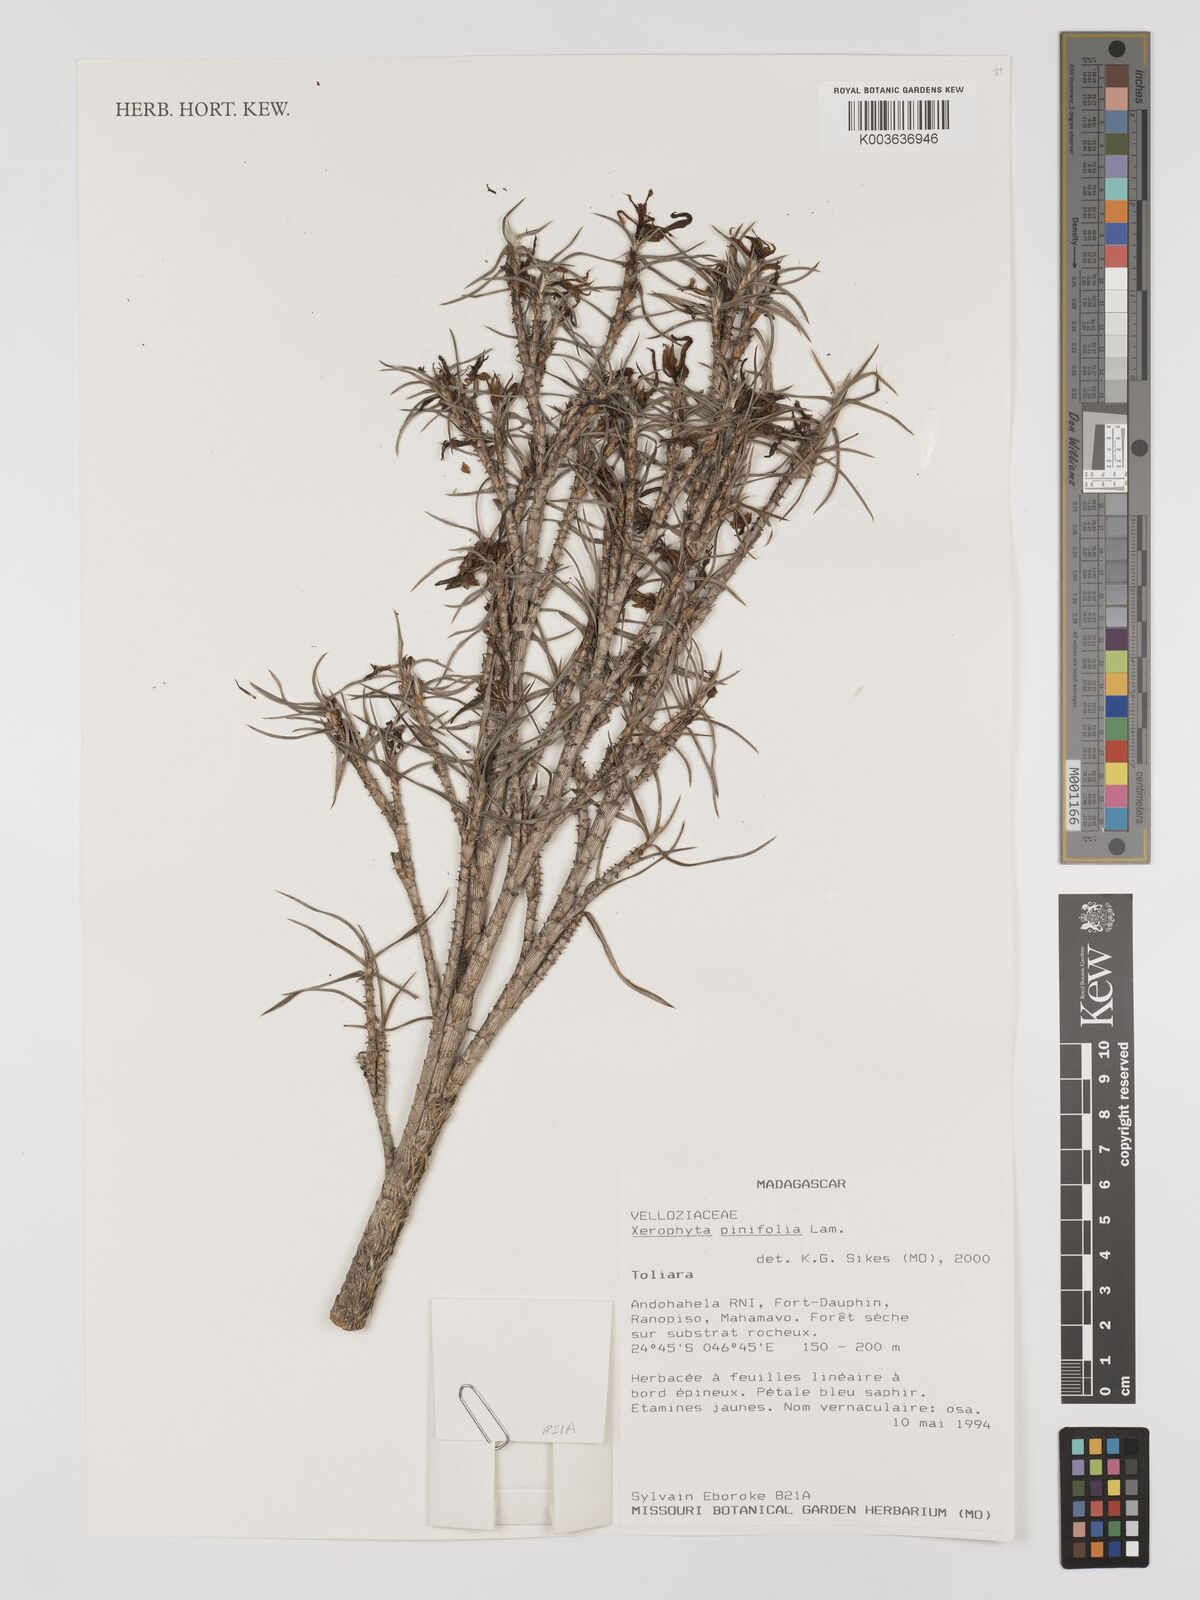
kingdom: Plantae
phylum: Tracheophyta
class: Liliopsida
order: Pandanales
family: Velloziaceae
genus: Xerophyta
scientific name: Xerophyta pinifolia
